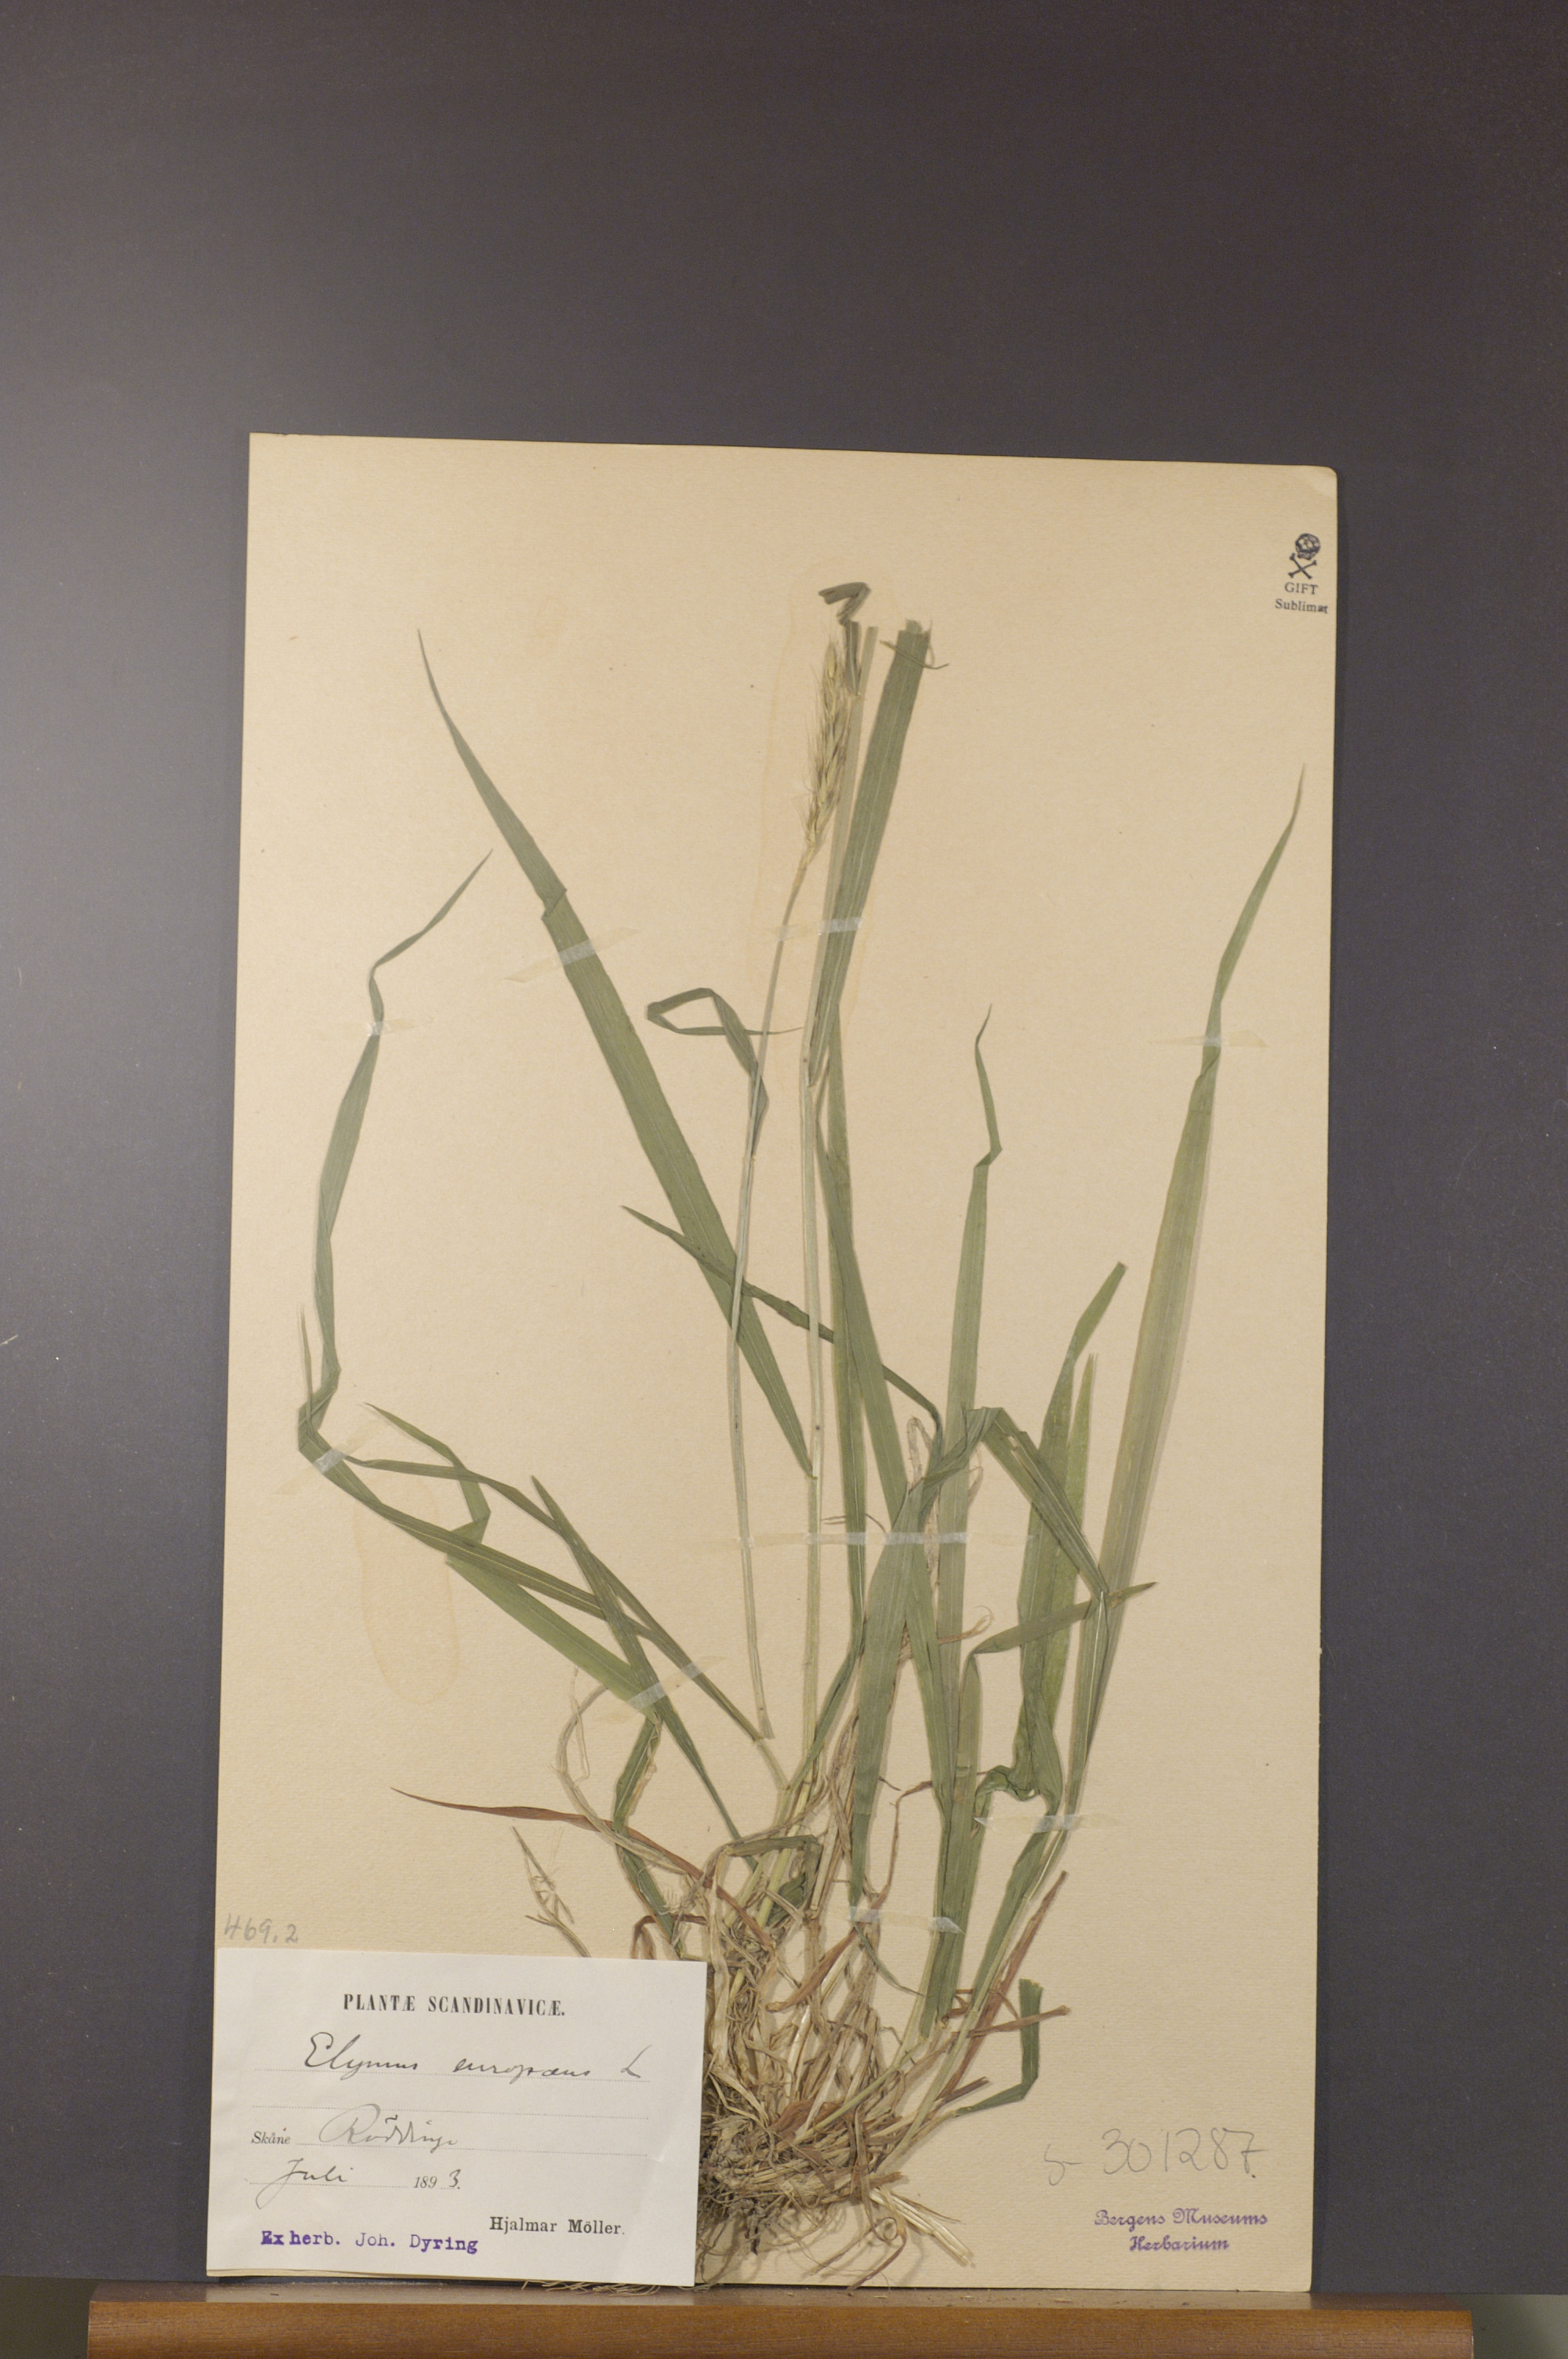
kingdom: Plantae
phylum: Tracheophyta
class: Liliopsida
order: Poales
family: Poaceae
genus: Hordelymus
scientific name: Hordelymus europaeus
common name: Wood-barley
